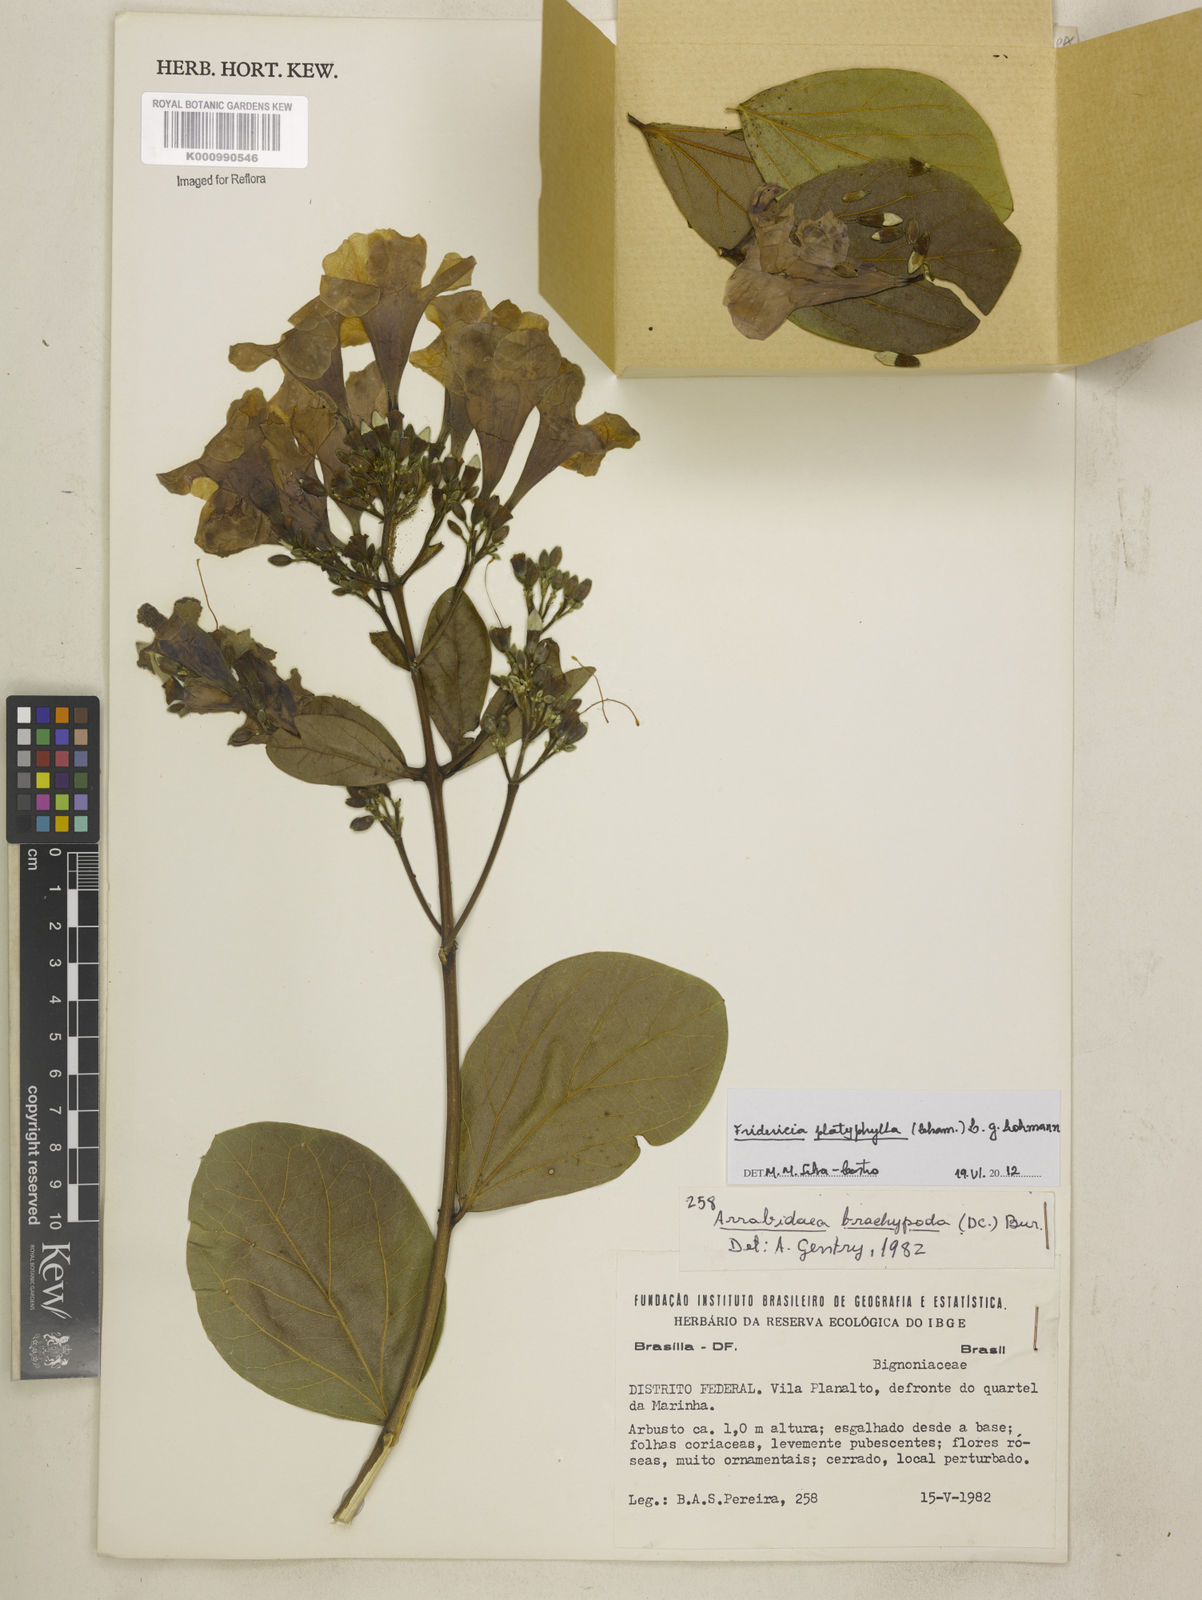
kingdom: Plantae
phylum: Tracheophyta
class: Magnoliopsida
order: Lamiales
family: Bignoniaceae
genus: Fridericia
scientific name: Fridericia platyphylla
